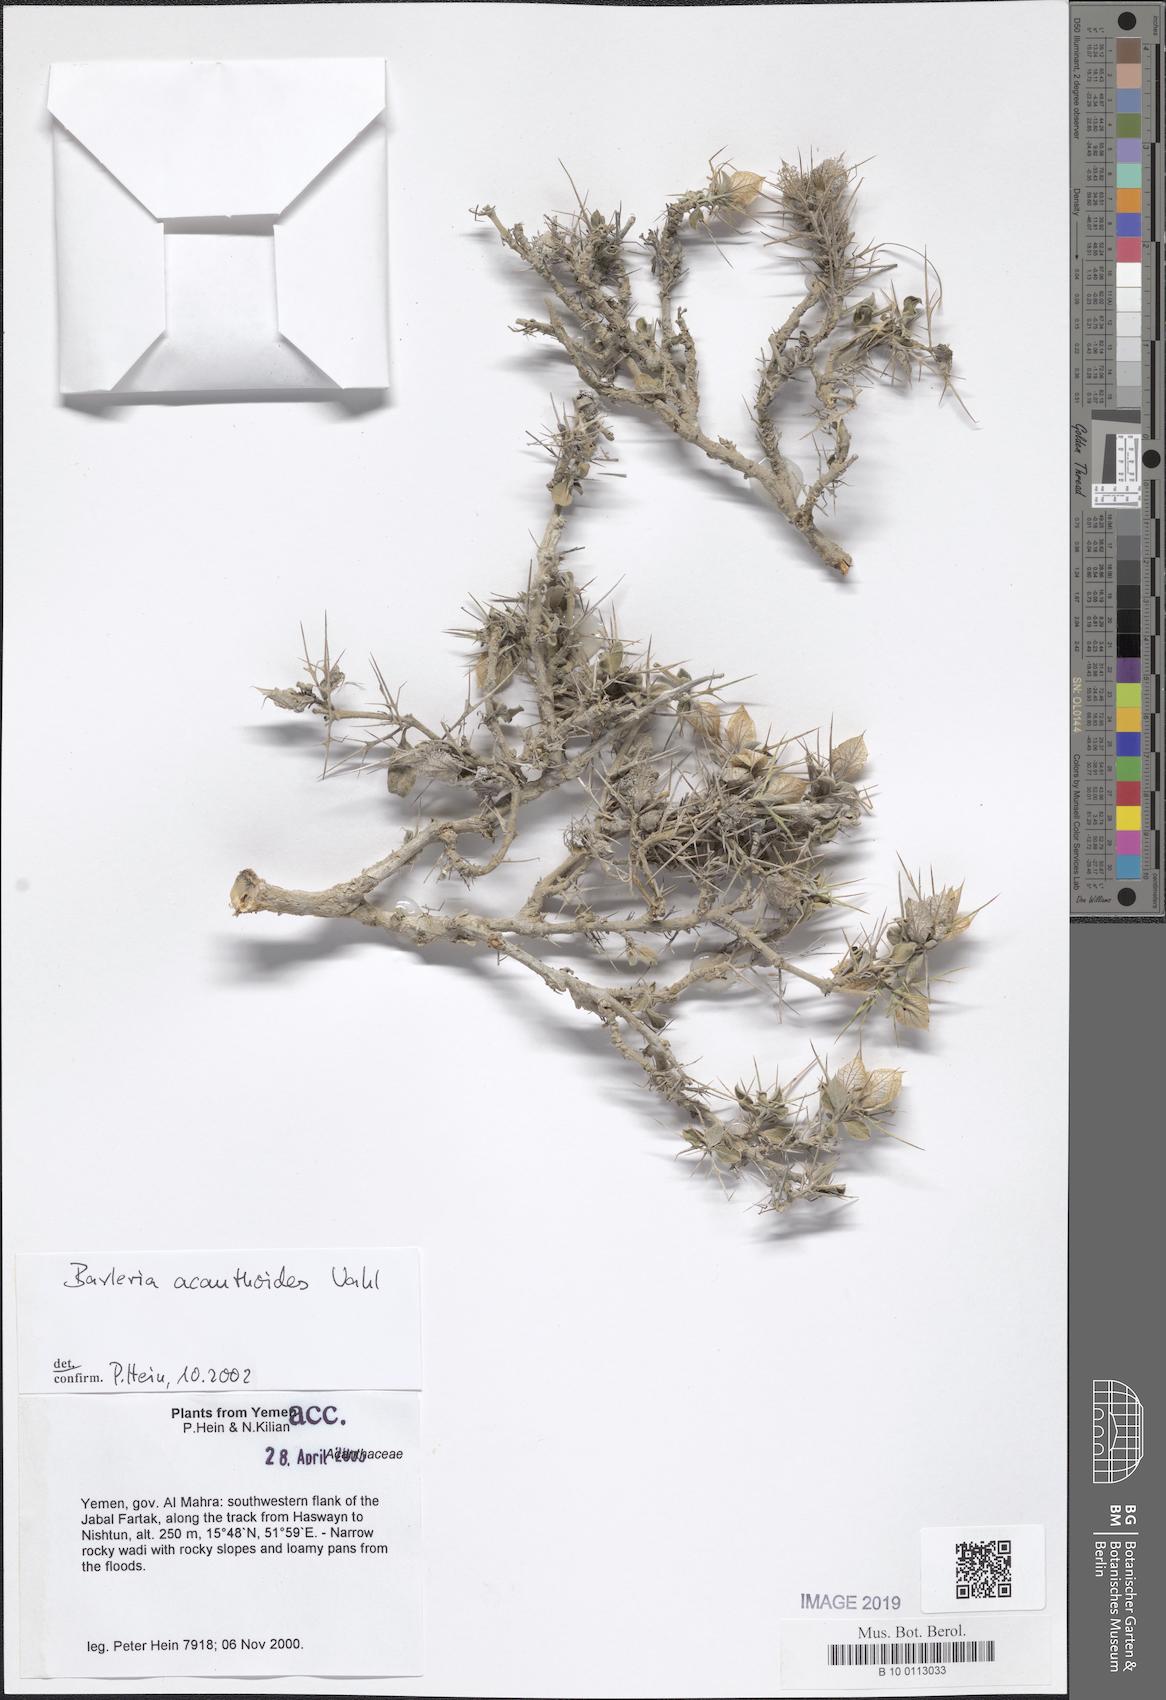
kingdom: Plantae
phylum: Tracheophyta
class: Magnoliopsida
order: Lamiales
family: Acanthaceae
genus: Barleria
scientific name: Barleria acanthoides
